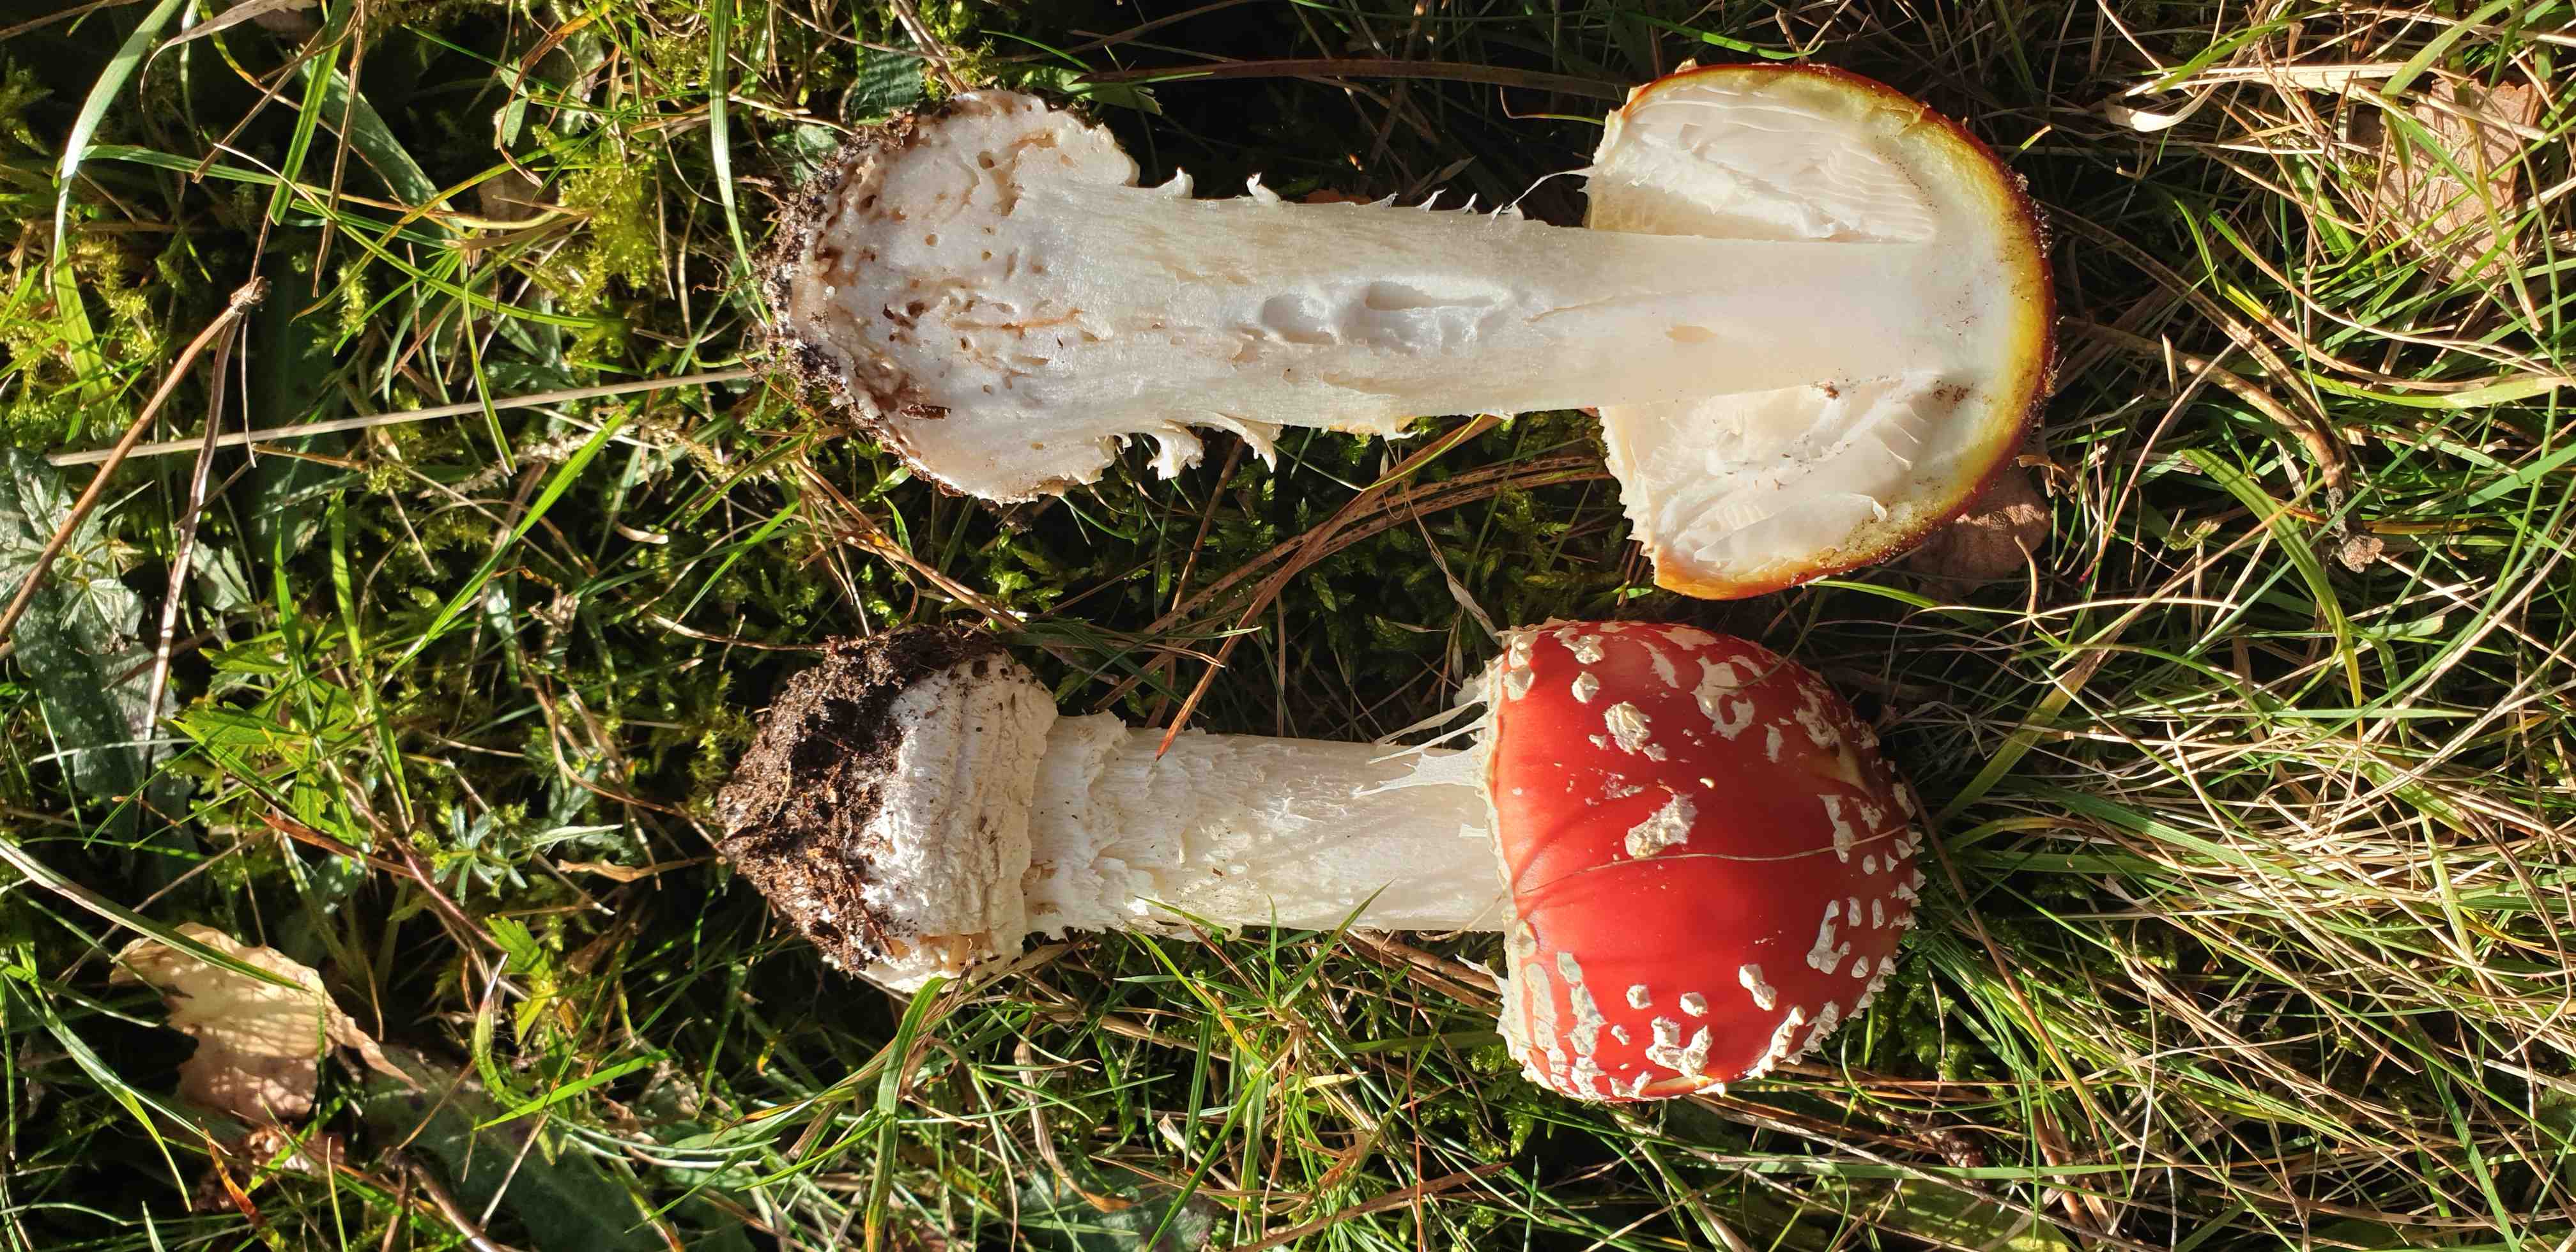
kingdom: Fungi
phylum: Basidiomycota
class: Agaricomycetes
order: Agaricales
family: Amanitaceae
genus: Amanita
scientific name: Amanita muscaria
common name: rød fluesvamp
